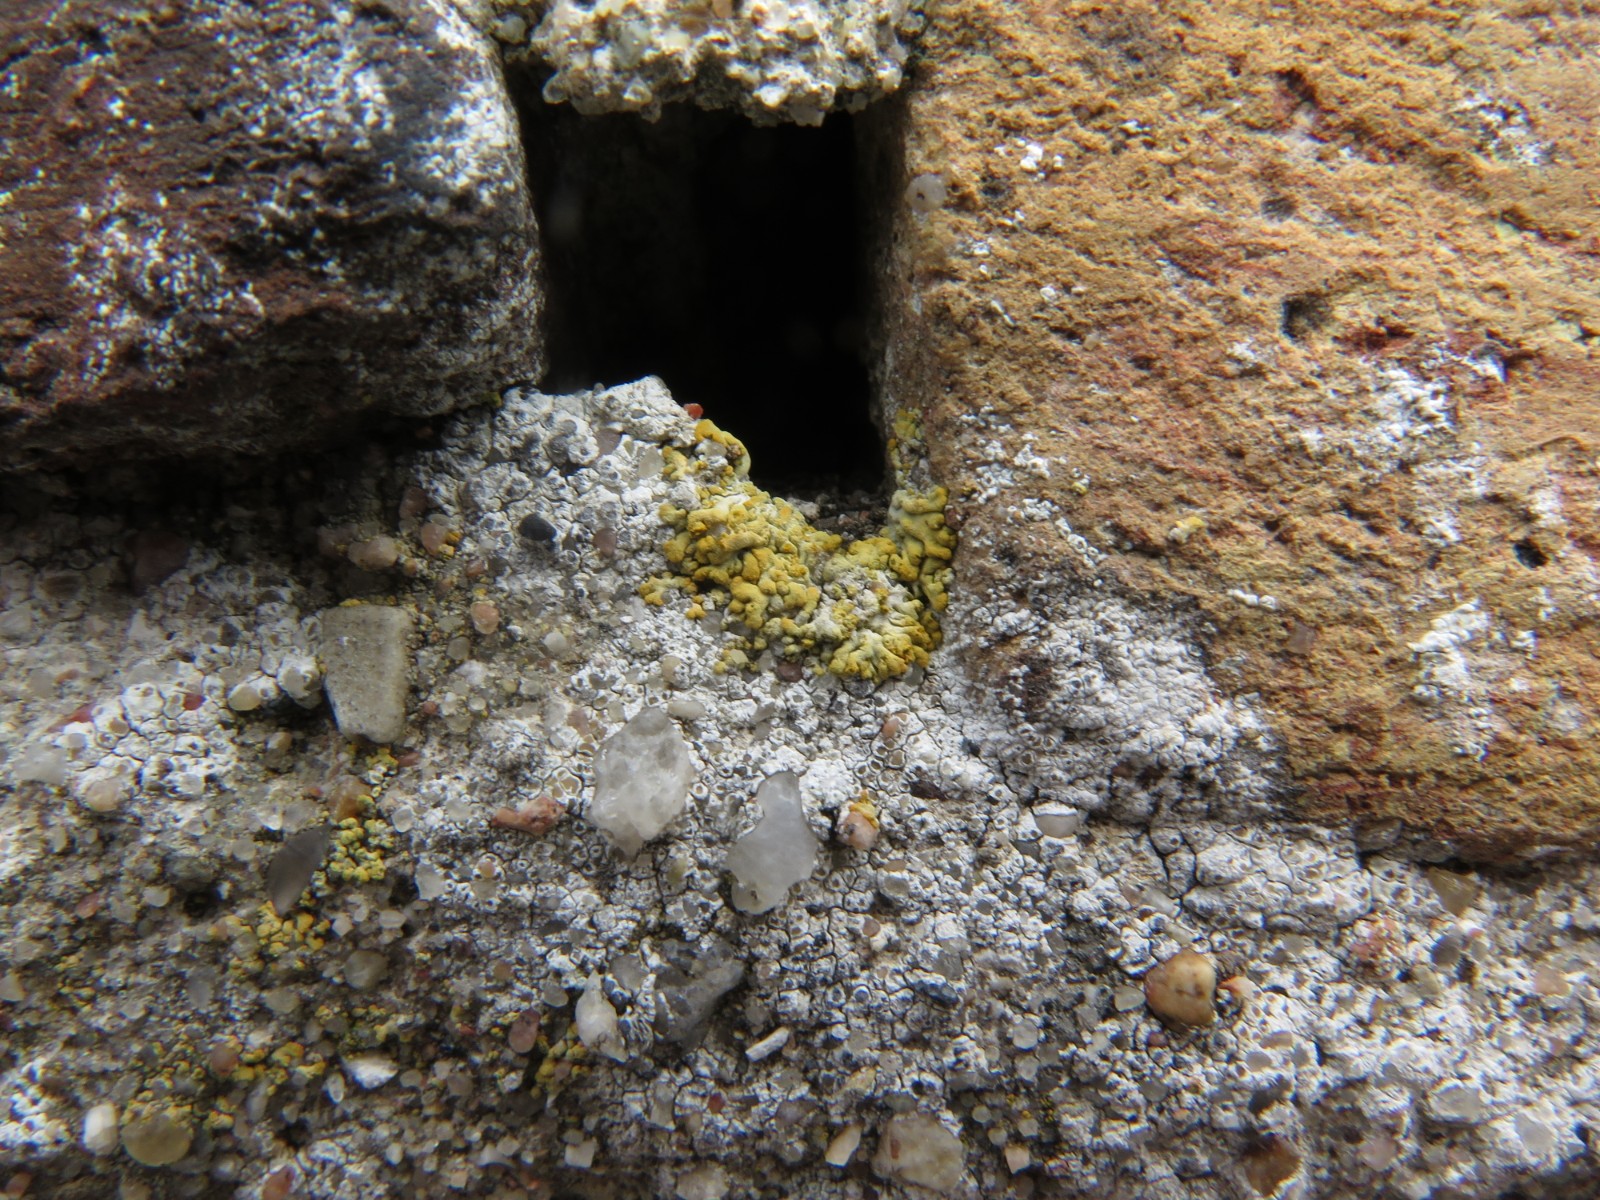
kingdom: Fungi
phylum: Ascomycota
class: Lecanoromycetes
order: Teloschistales
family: Teloschistaceae
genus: Variospora
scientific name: Variospora flavescens
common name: kalk-orangelav
